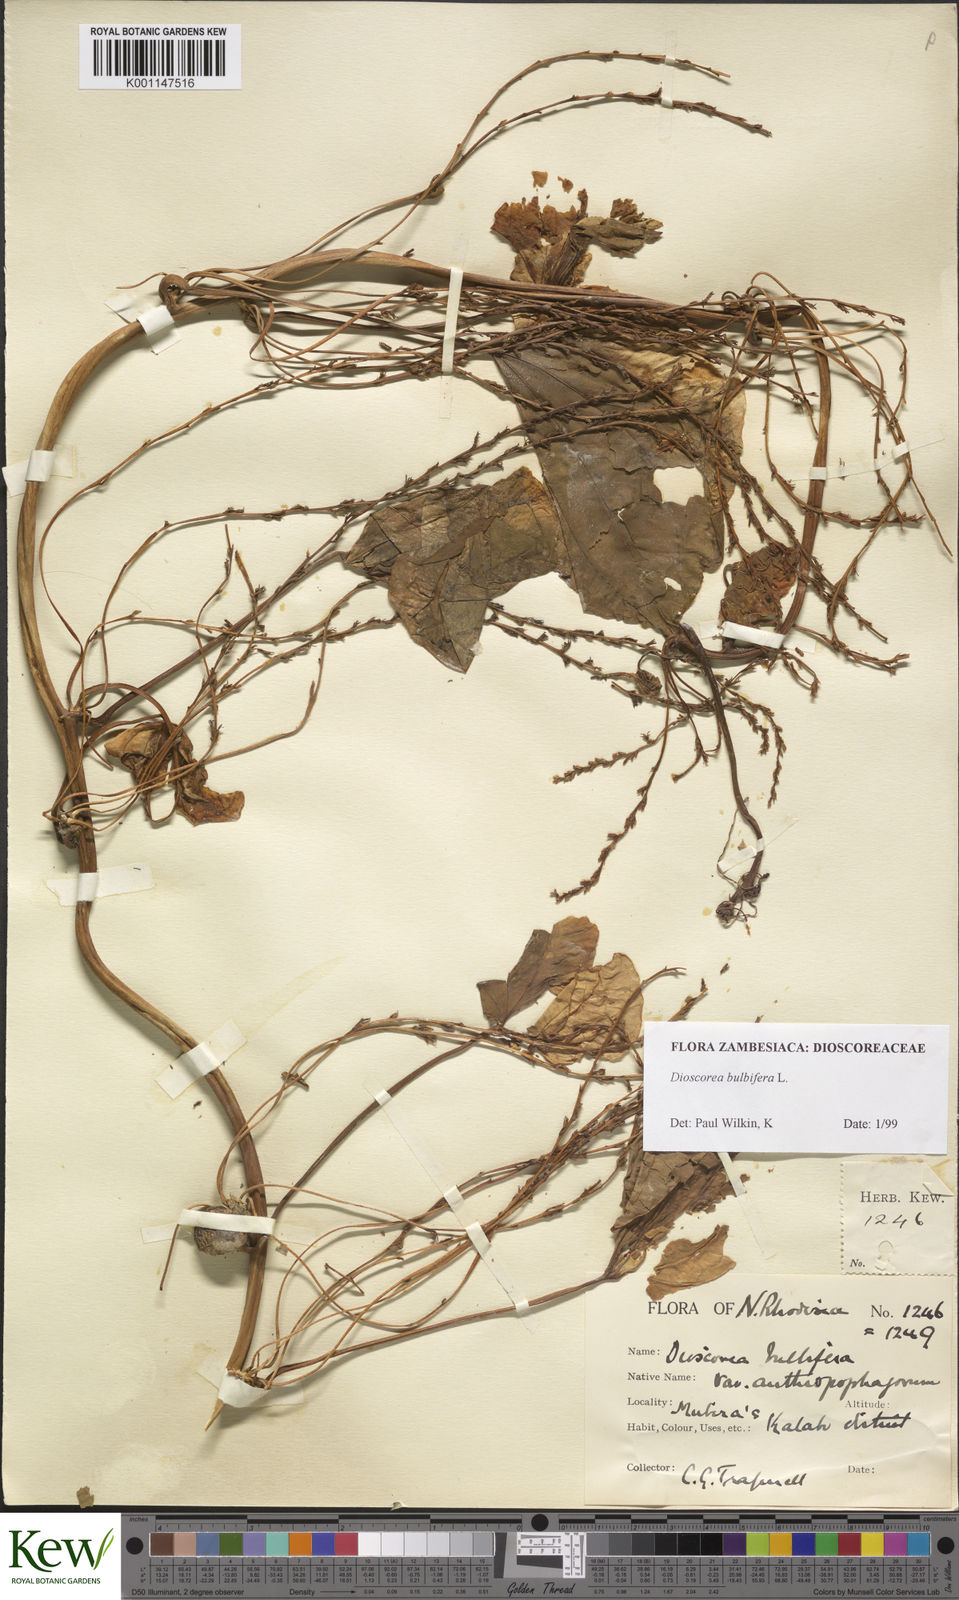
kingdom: Plantae
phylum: Tracheophyta
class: Liliopsida
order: Dioscoreales
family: Dioscoreaceae
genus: Dioscorea
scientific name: Dioscorea bulbifera
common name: Air yam
